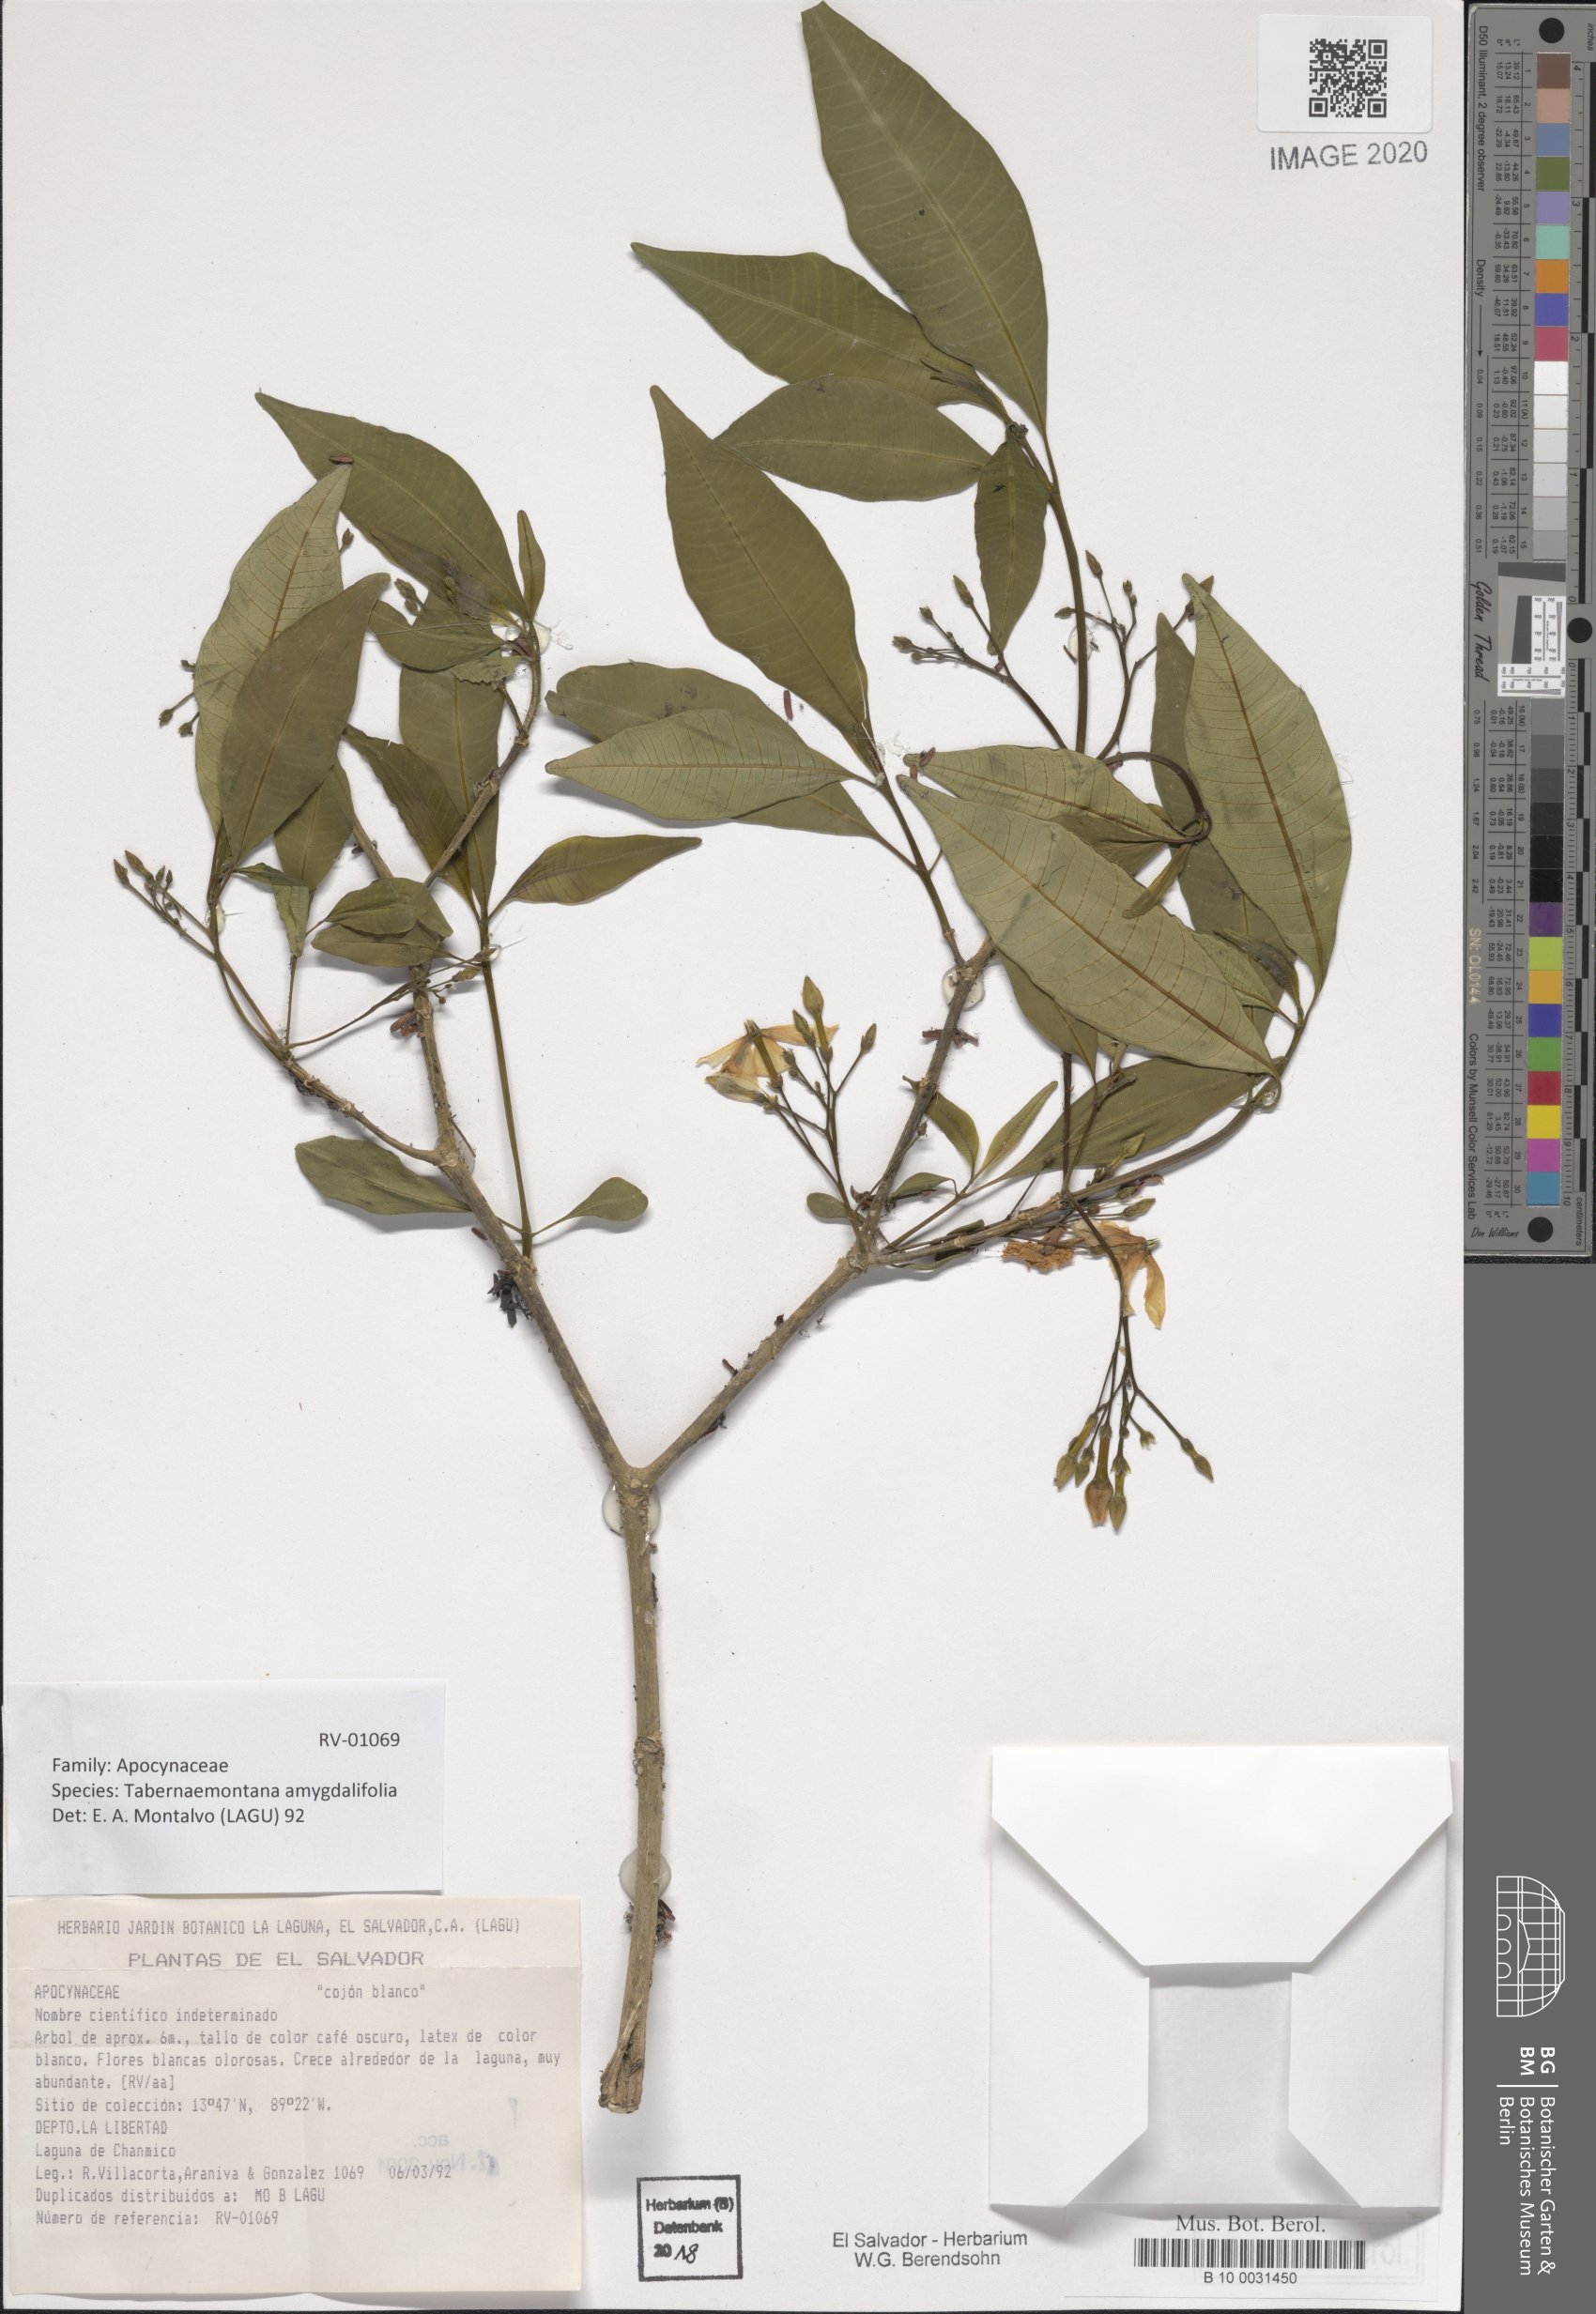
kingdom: Plantae
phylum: Tracheophyta
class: Magnoliopsida
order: Gentianales
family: Apocynaceae
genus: Tabernaemontana
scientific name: Tabernaemontana amygdalifolia
